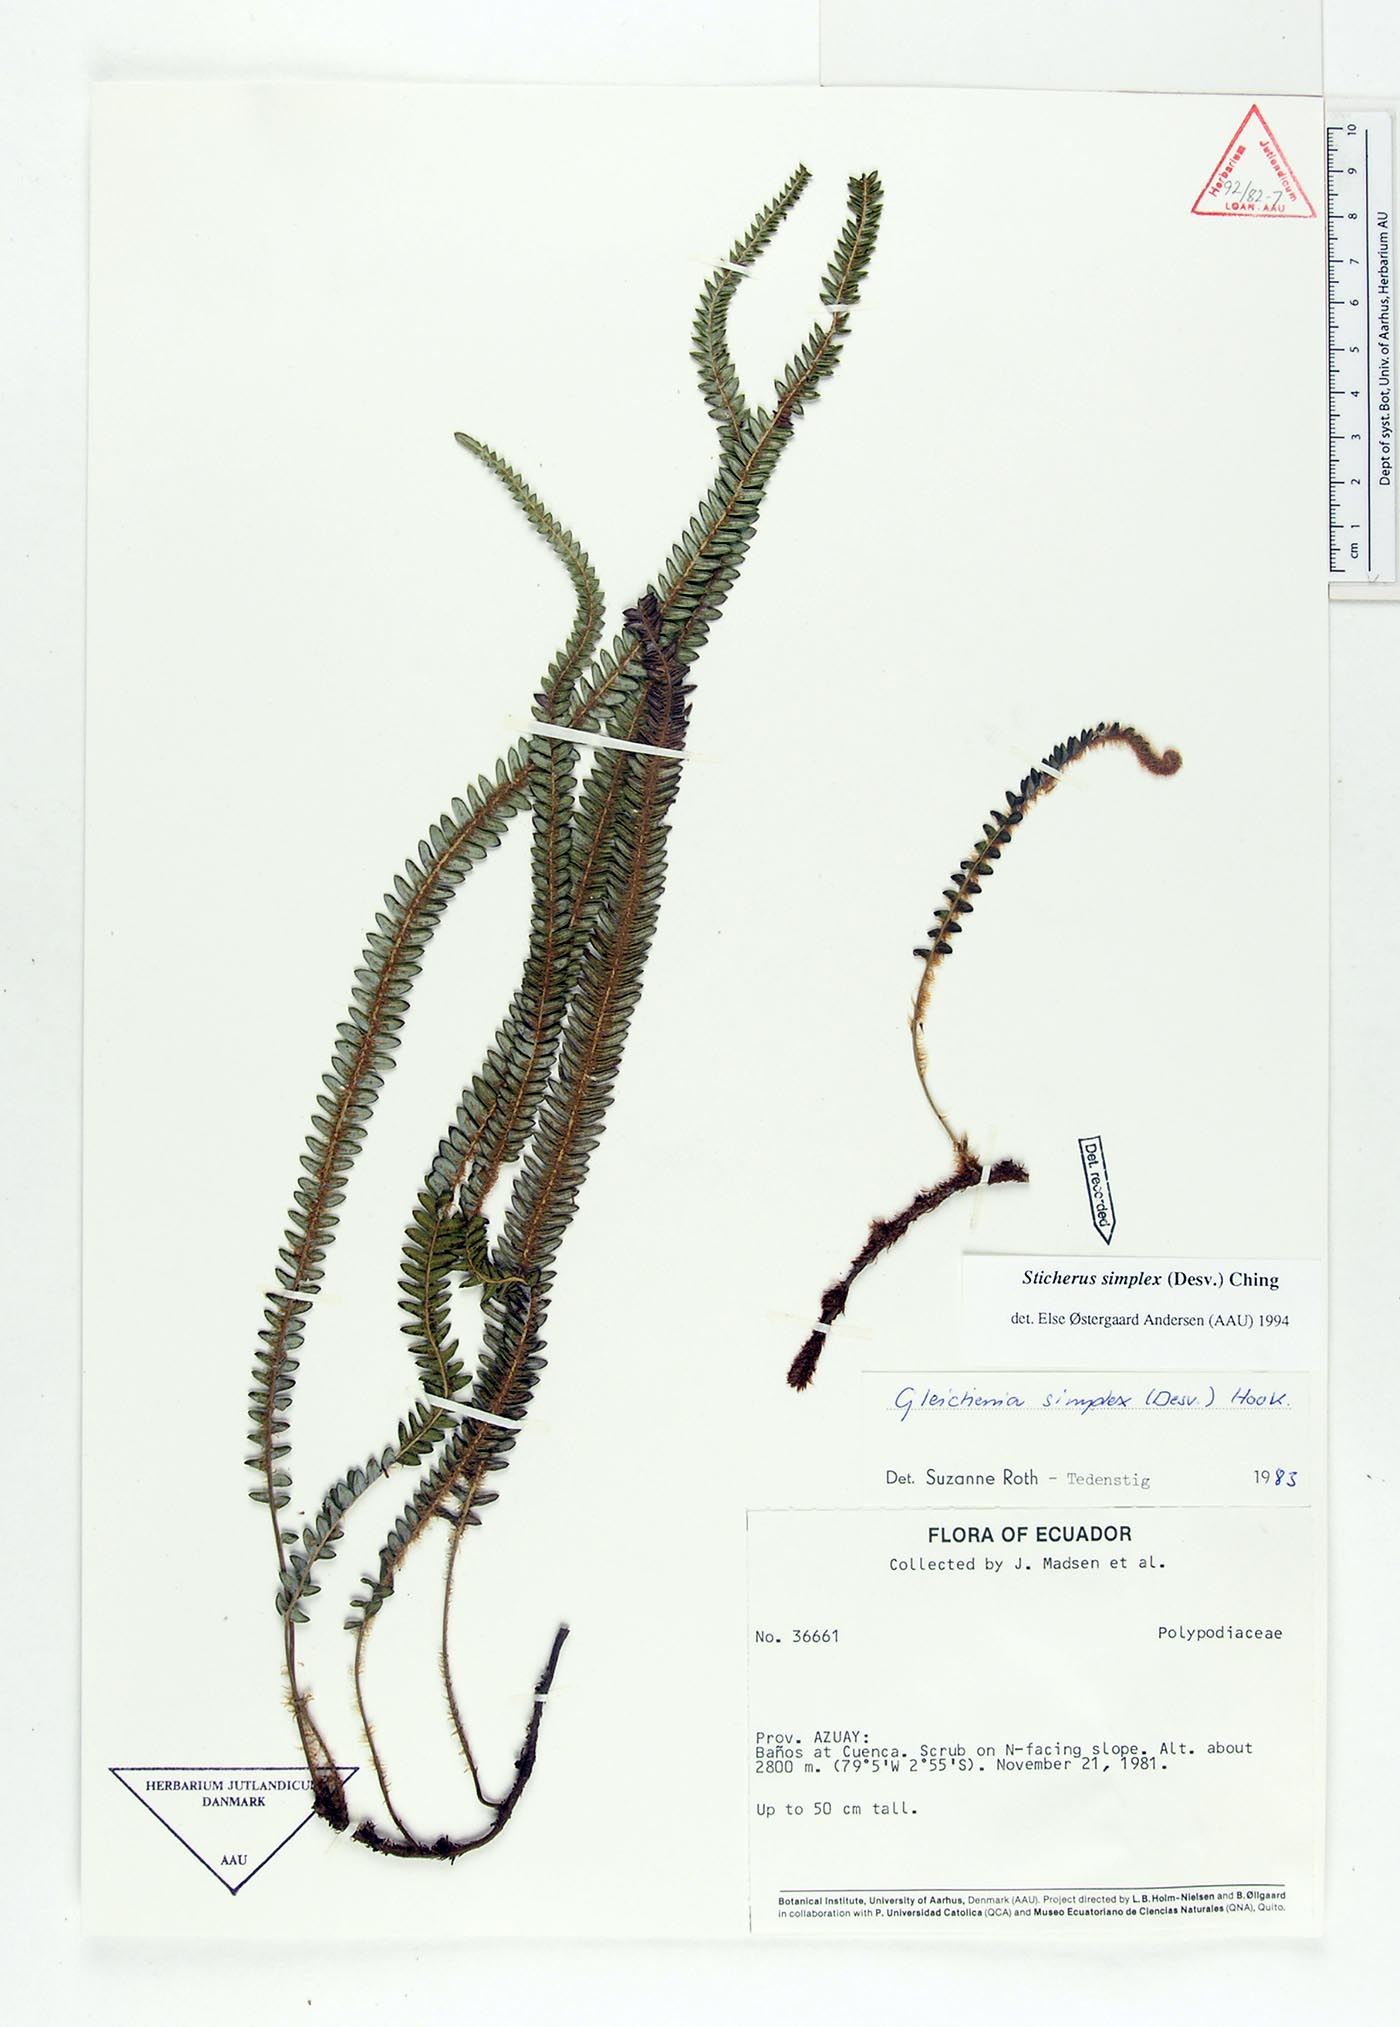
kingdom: Plantae
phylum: Tracheophyta
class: Polypodiopsida
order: Gleicheniales
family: Gleicheniaceae
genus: Sticherus
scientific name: Sticherus simplex
